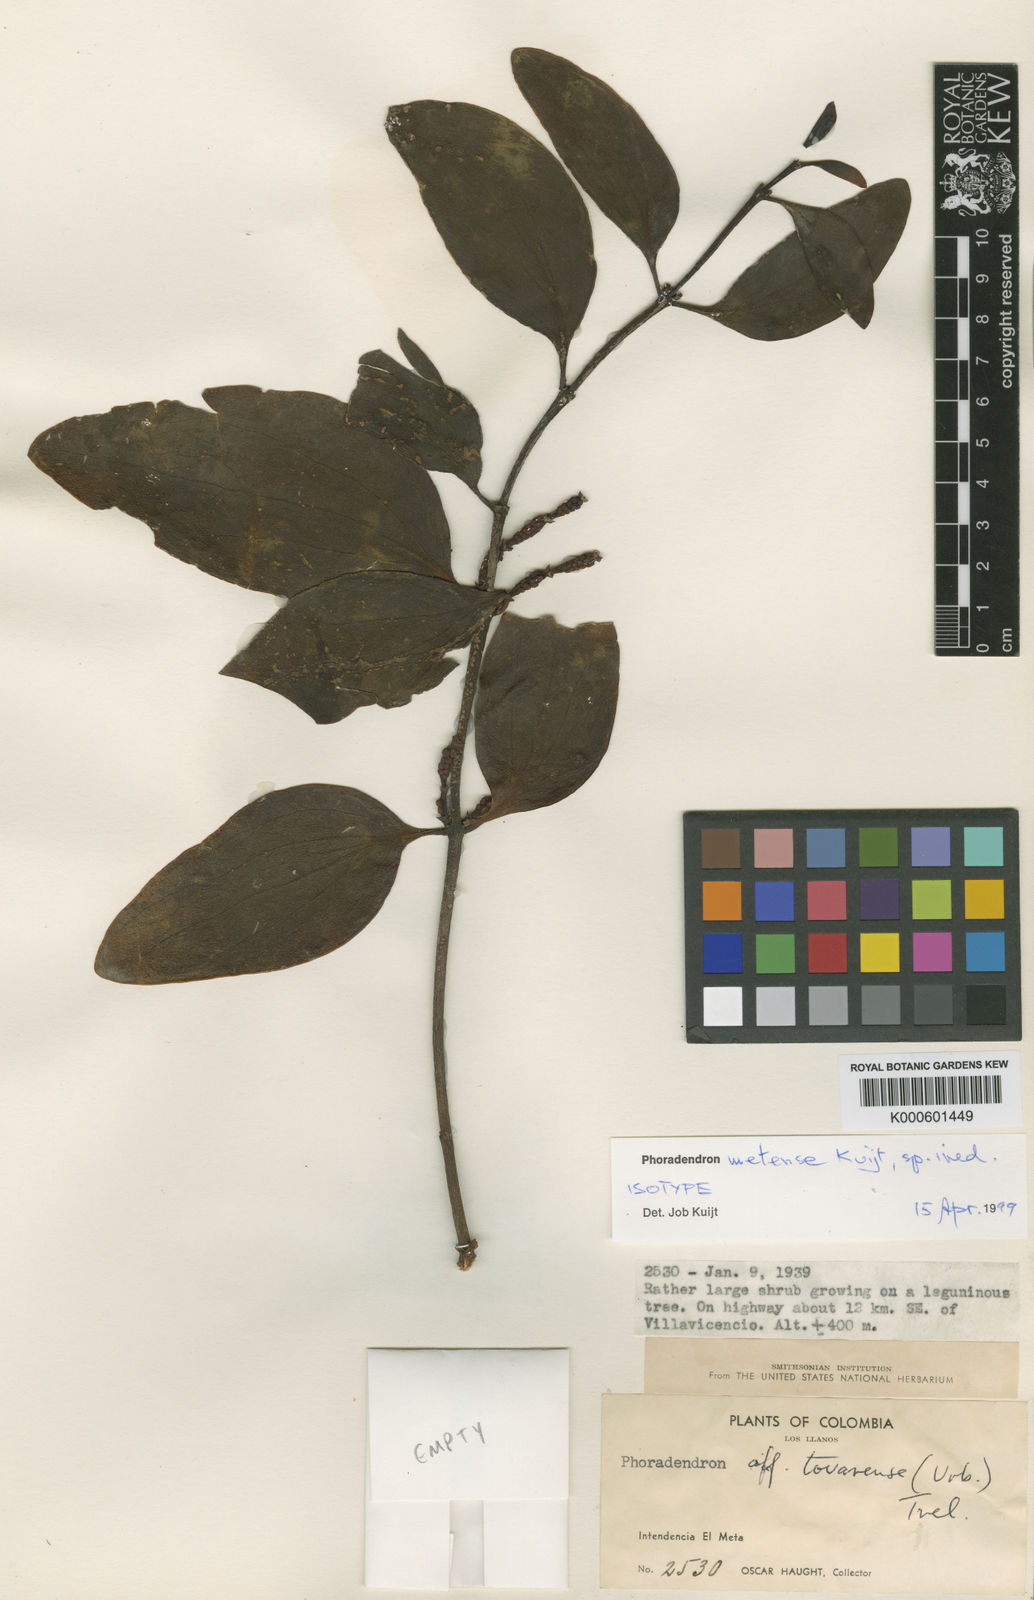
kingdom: Plantae
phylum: Tracheophyta
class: Magnoliopsida
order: Santalales
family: Viscaceae
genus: Phoradendron
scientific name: Phoradendron metense
